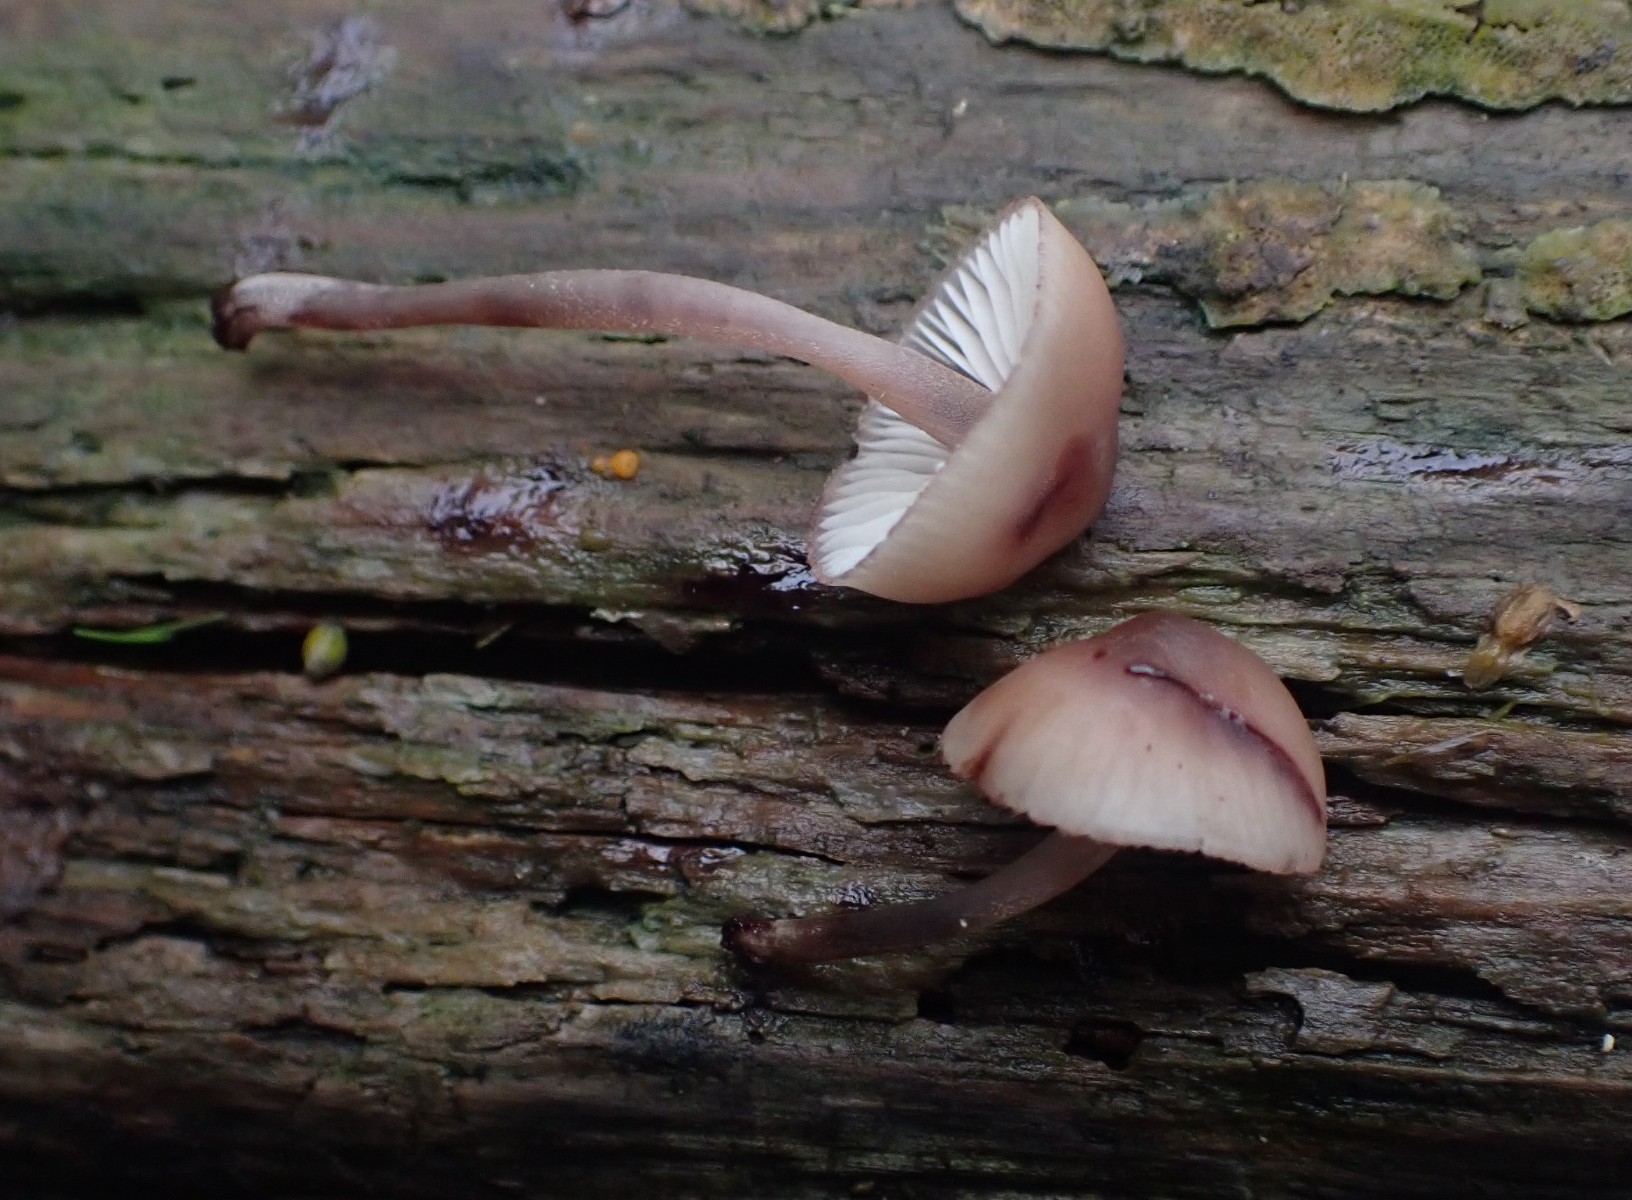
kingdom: Fungi
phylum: Basidiomycota
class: Agaricomycetes
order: Agaricales
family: Mycenaceae
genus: Mycena
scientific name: Mycena haematopus
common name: blødende huesvamp
